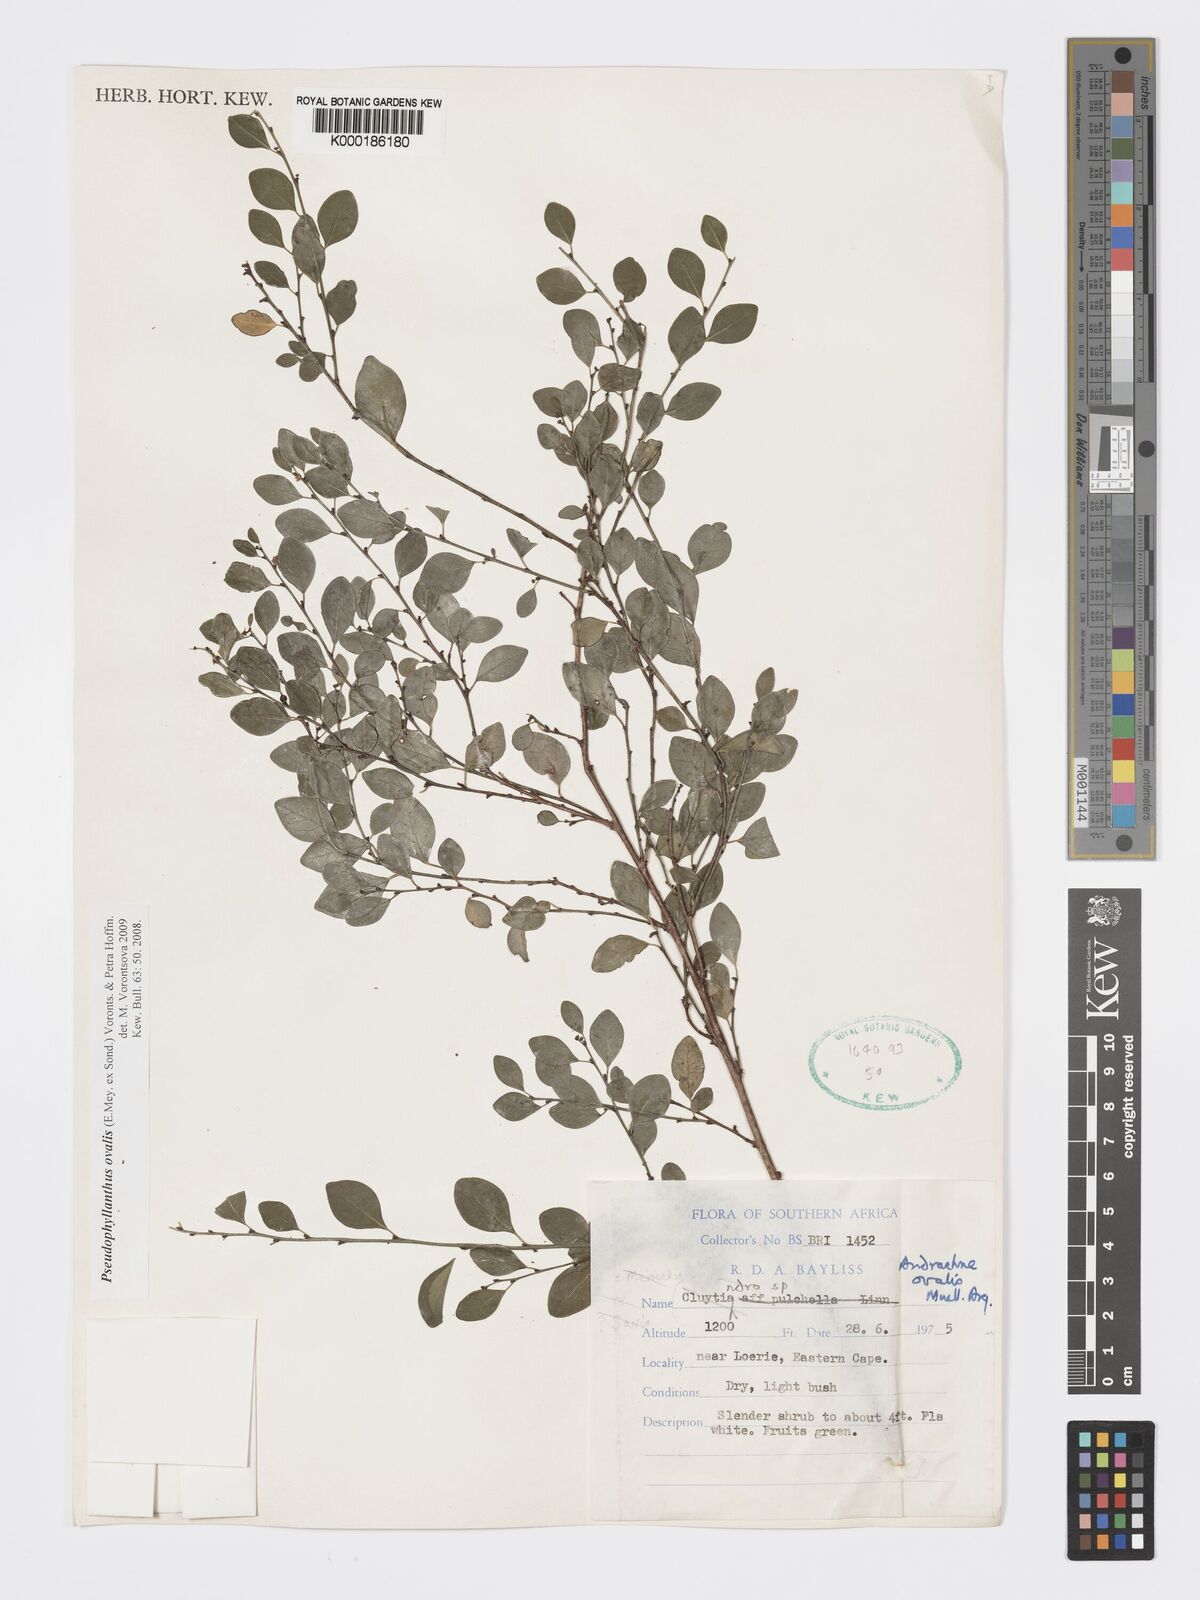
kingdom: Plantae
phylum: Tracheophyta
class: Magnoliopsida
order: Malpighiales
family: Phyllanthaceae
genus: Pseudophyllanthus
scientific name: Pseudophyllanthus ovalis
